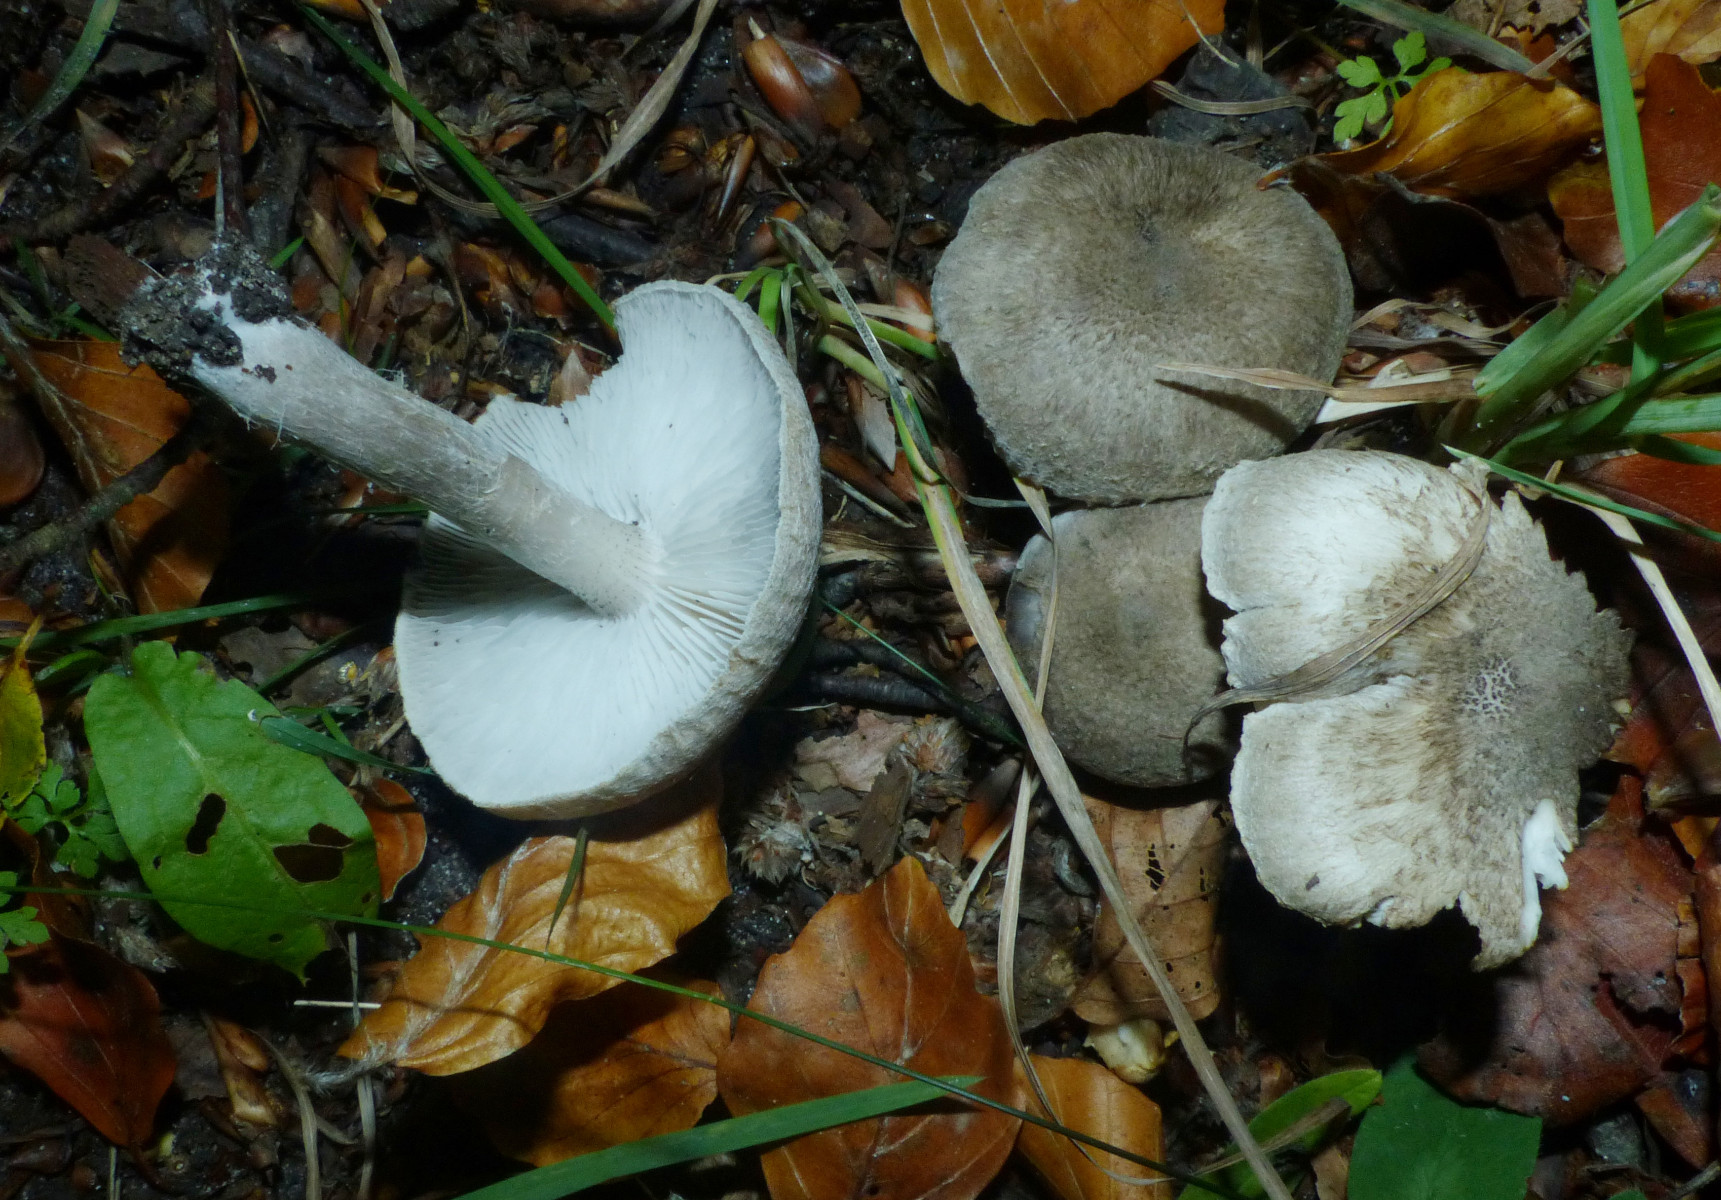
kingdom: Fungi
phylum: Basidiomycota
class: Agaricomycetes
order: Agaricales
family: Tricholomataceae
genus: Tricholoma
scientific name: Tricholoma argyraceum
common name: slør-ridderhat
